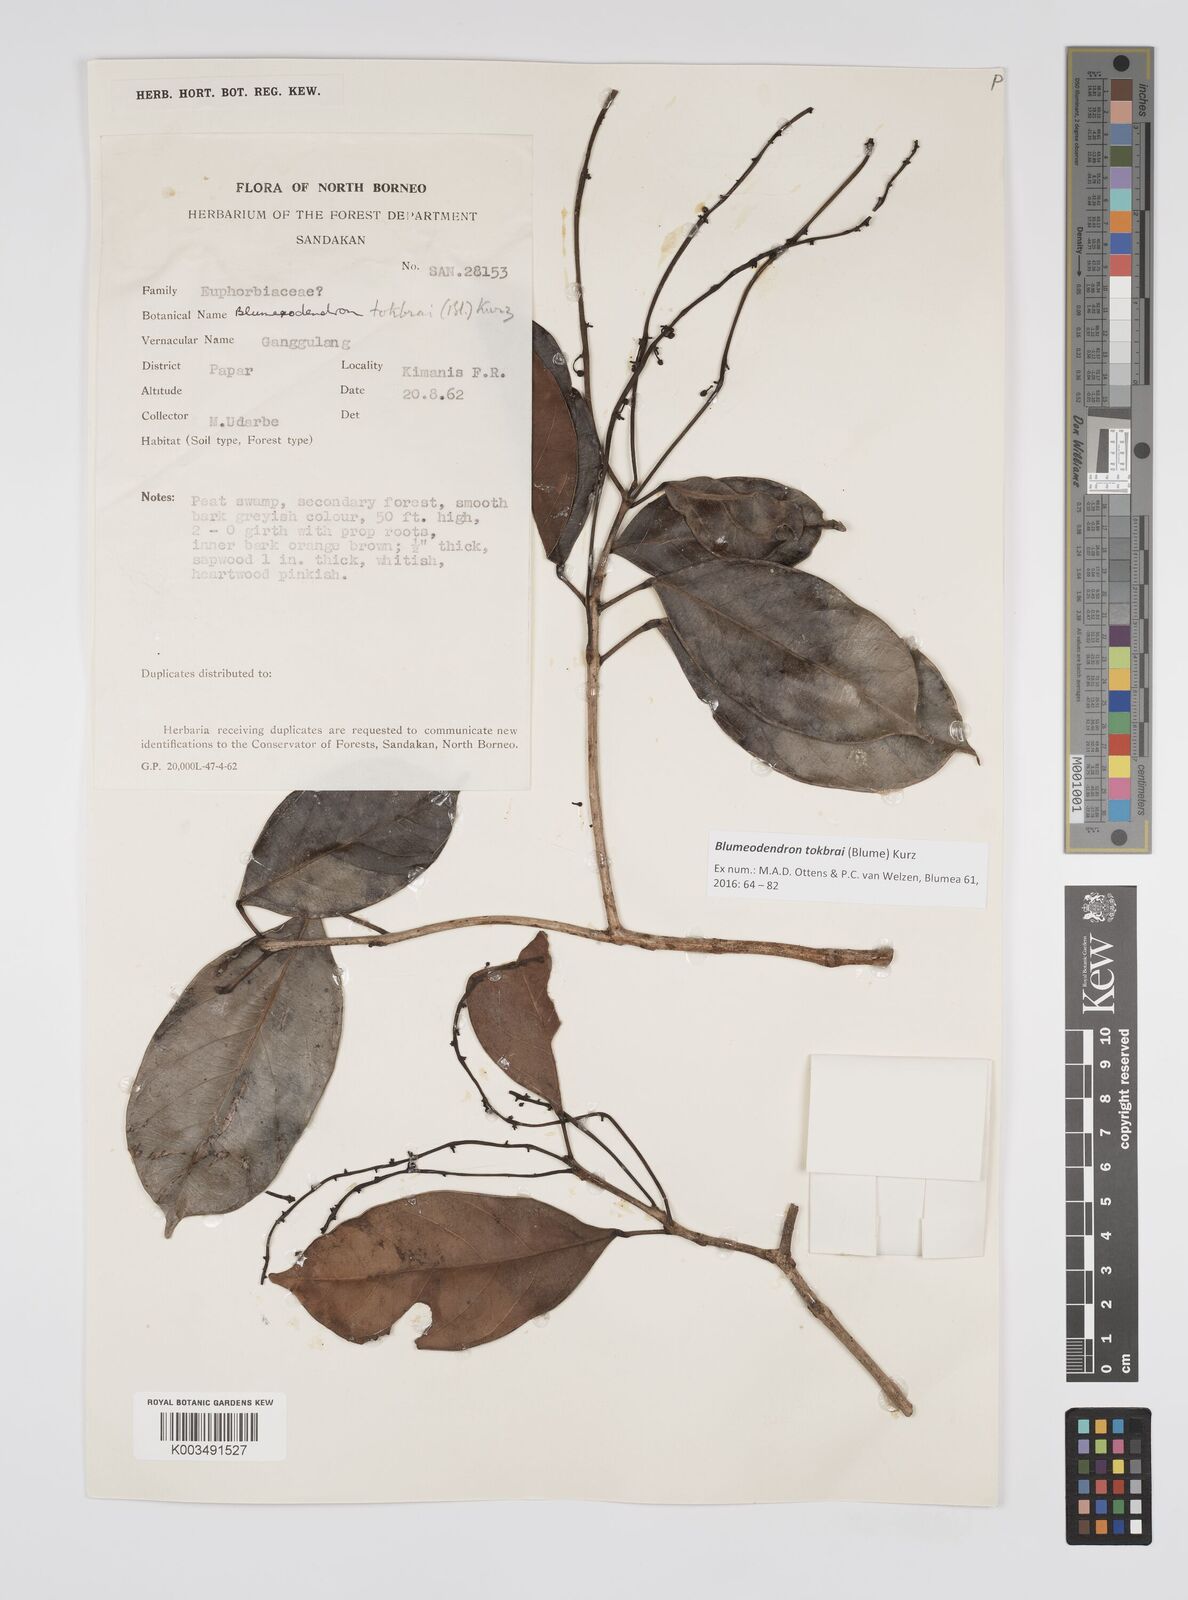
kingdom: Plantae
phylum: Tracheophyta
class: Magnoliopsida
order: Malpighiales
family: Euphorbiaceae
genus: Blumeodendron
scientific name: Blumeodendron tokbrai
